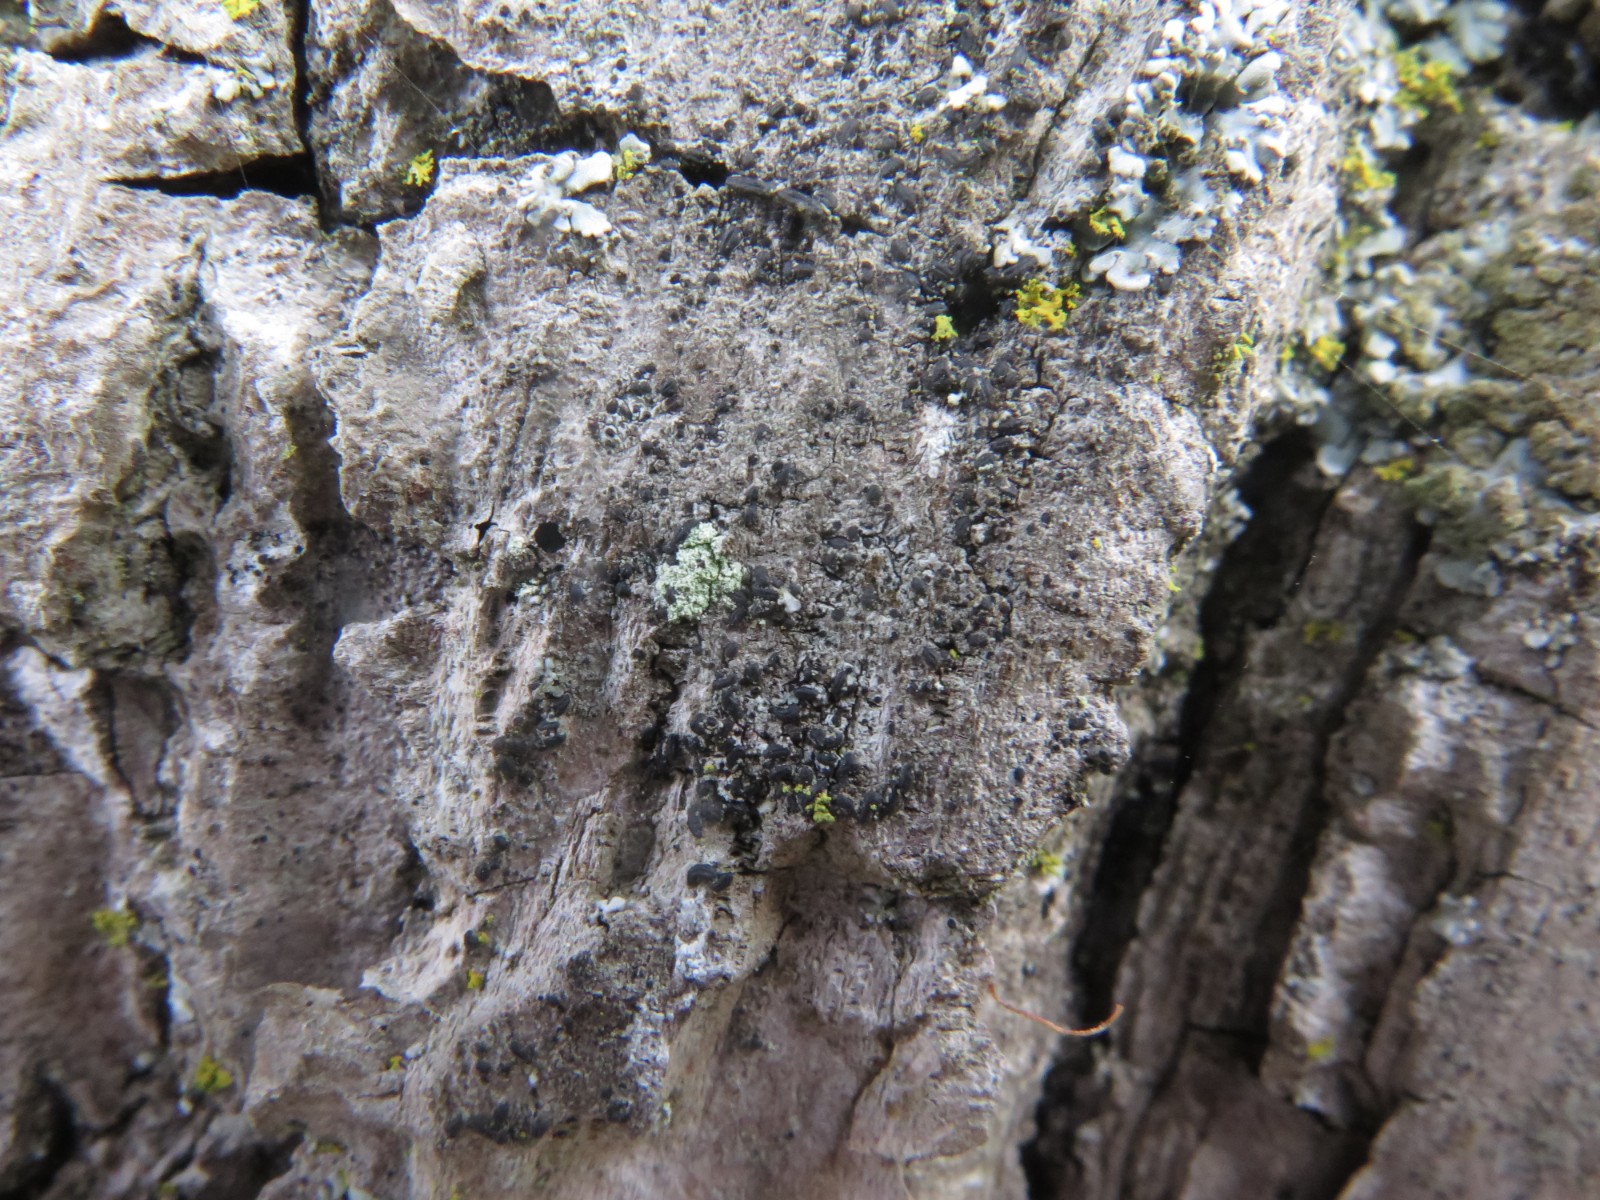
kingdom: Fungi
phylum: Ascomycota
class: Dothideomycetes
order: Hysteriales
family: Hysteriaceae
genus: Hysterium
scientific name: Hysterium pulicare
